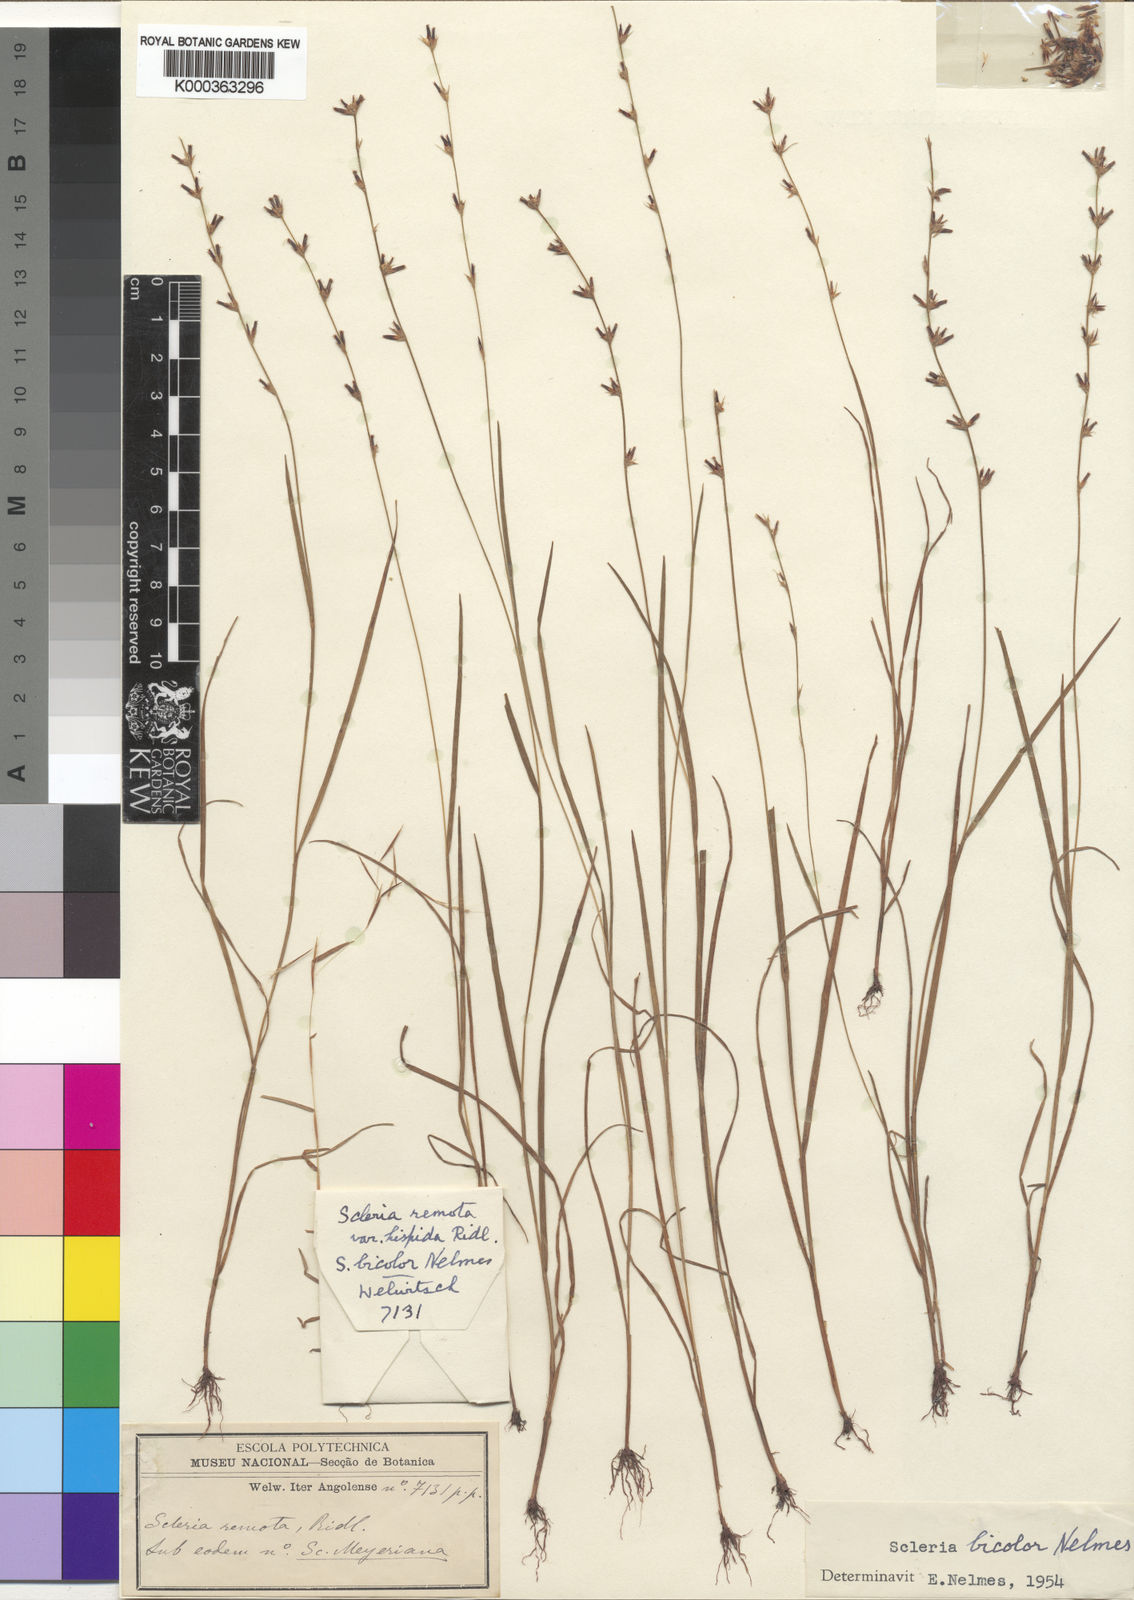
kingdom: Plantae
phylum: Tracheophyta
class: Liliopsida
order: Poales
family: Cyperaceae
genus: Scleria
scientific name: Scleria remota
